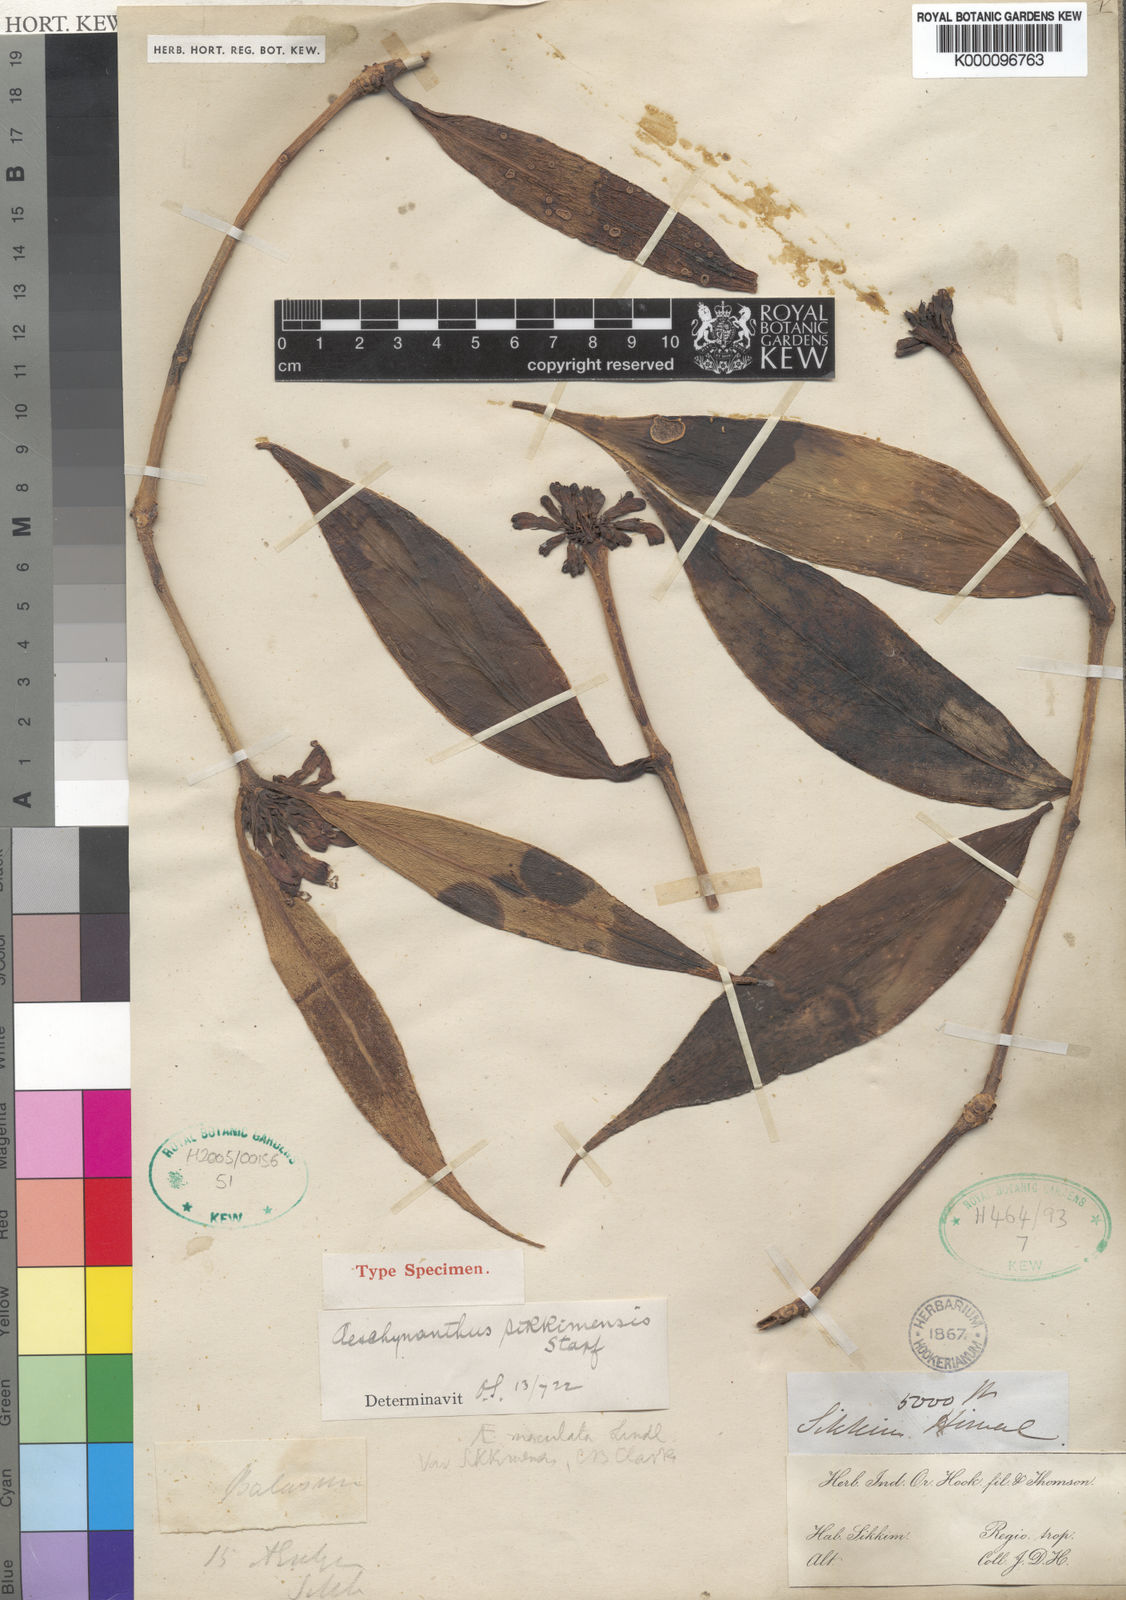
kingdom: Plantae
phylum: Tracheophyta
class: Magnoliopsida
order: Lamiales
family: Gesneriaceae
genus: Aeschynanthus
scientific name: Aeschynanthus parviflorus
